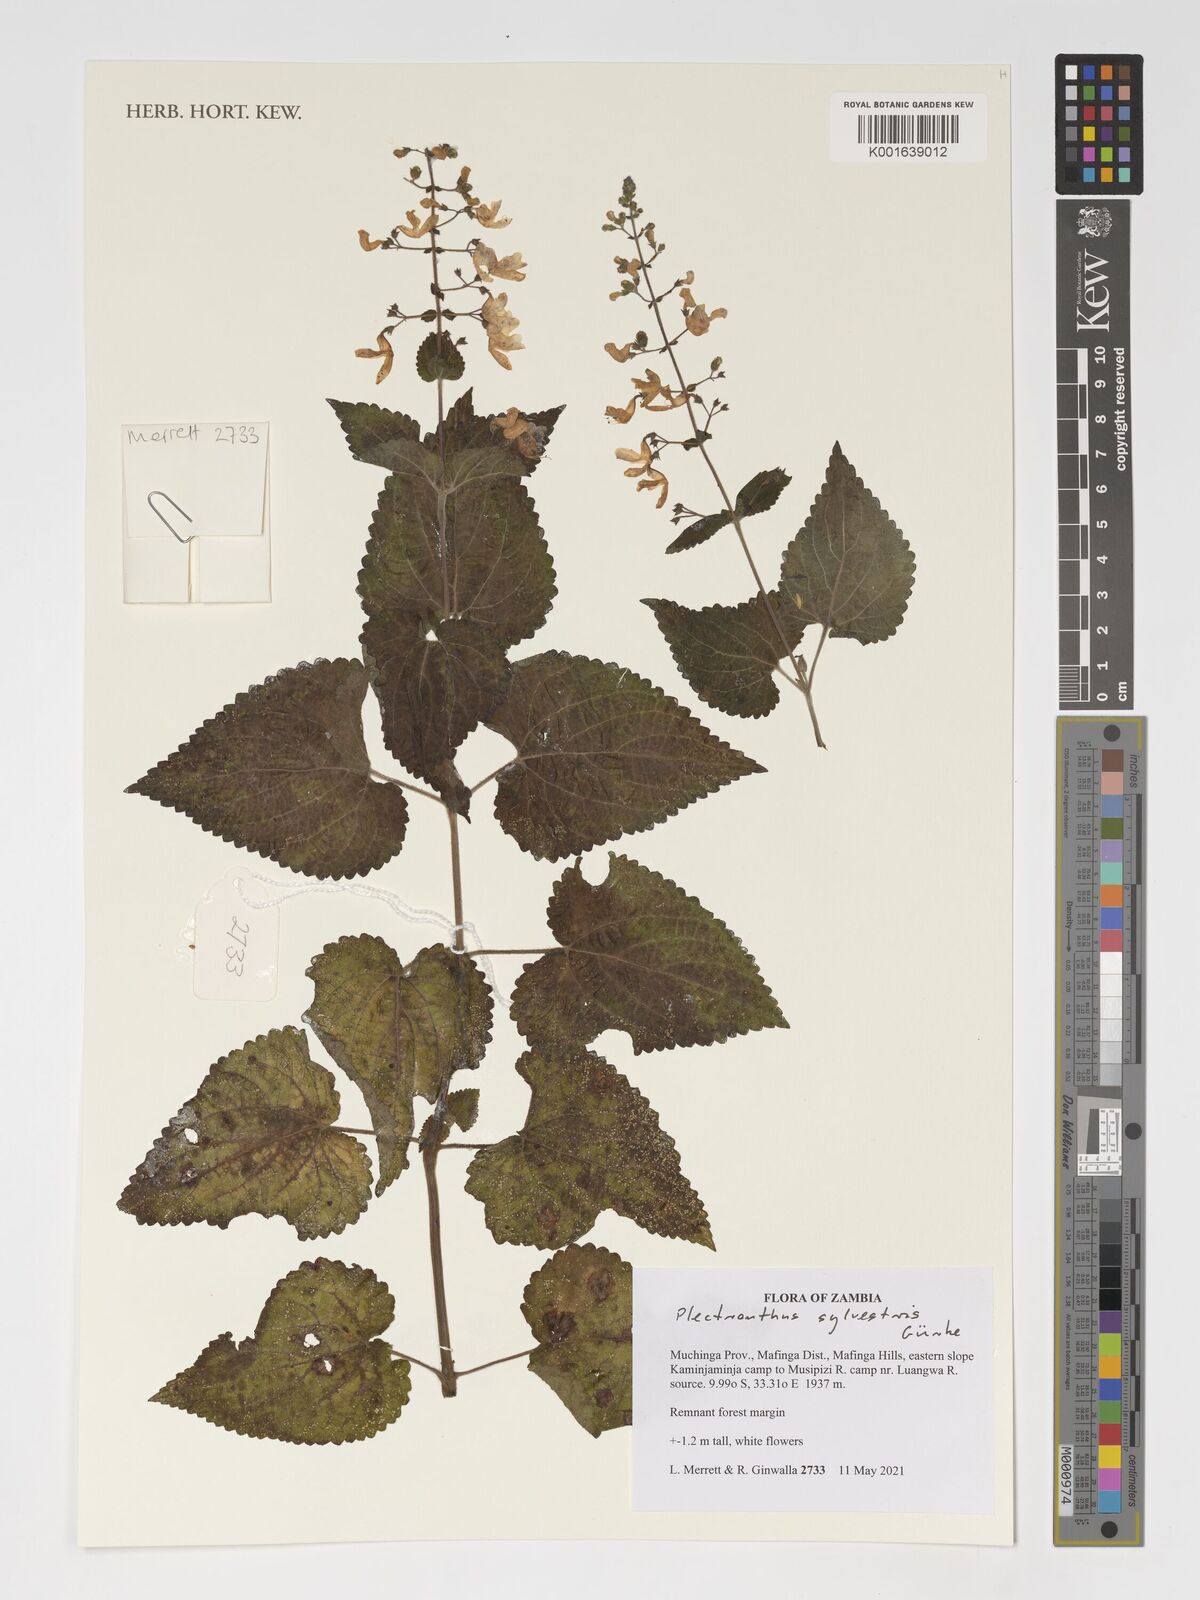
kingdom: Plantae
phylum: Tracheophyta
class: Magnoliopsida
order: Lamiales
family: Lamiaceae
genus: Coleus
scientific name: Coleus sylvestris
